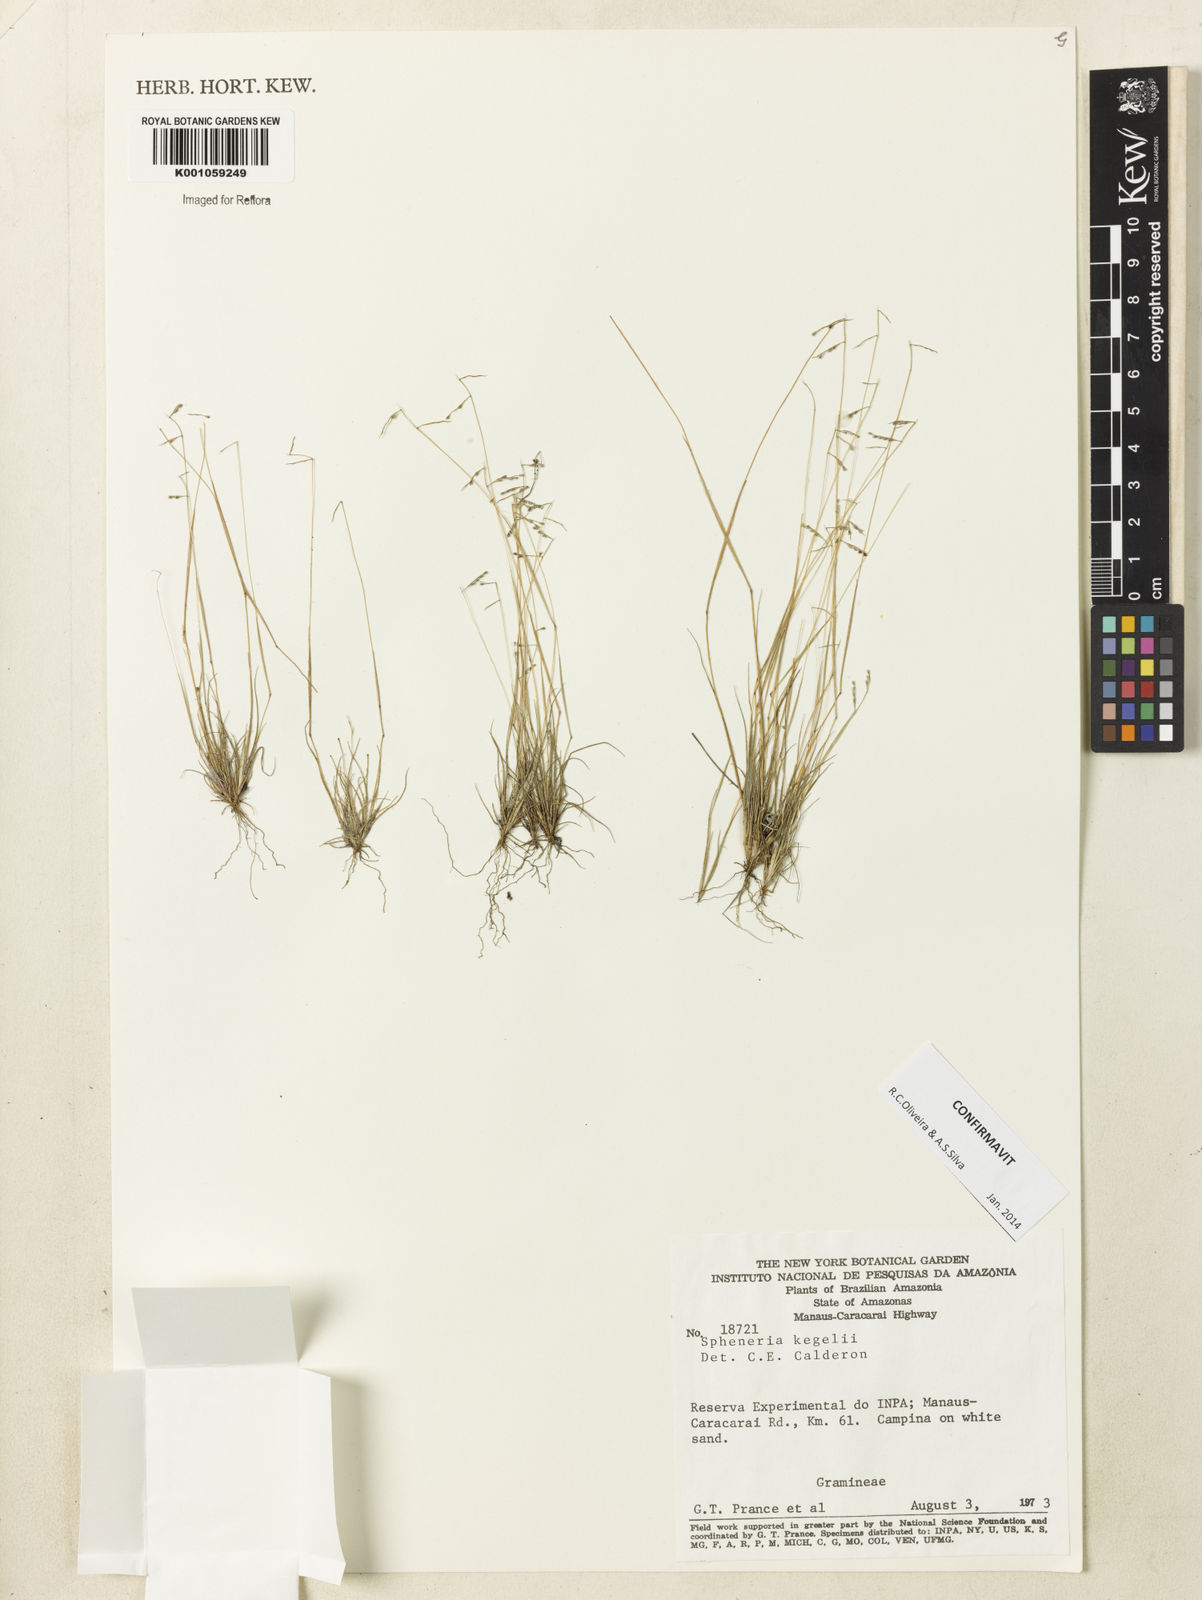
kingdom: Plantae
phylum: Tracheophyta
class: Liliopsida
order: Poales
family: Poaceae
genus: Spheneria
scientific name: Spheneria
